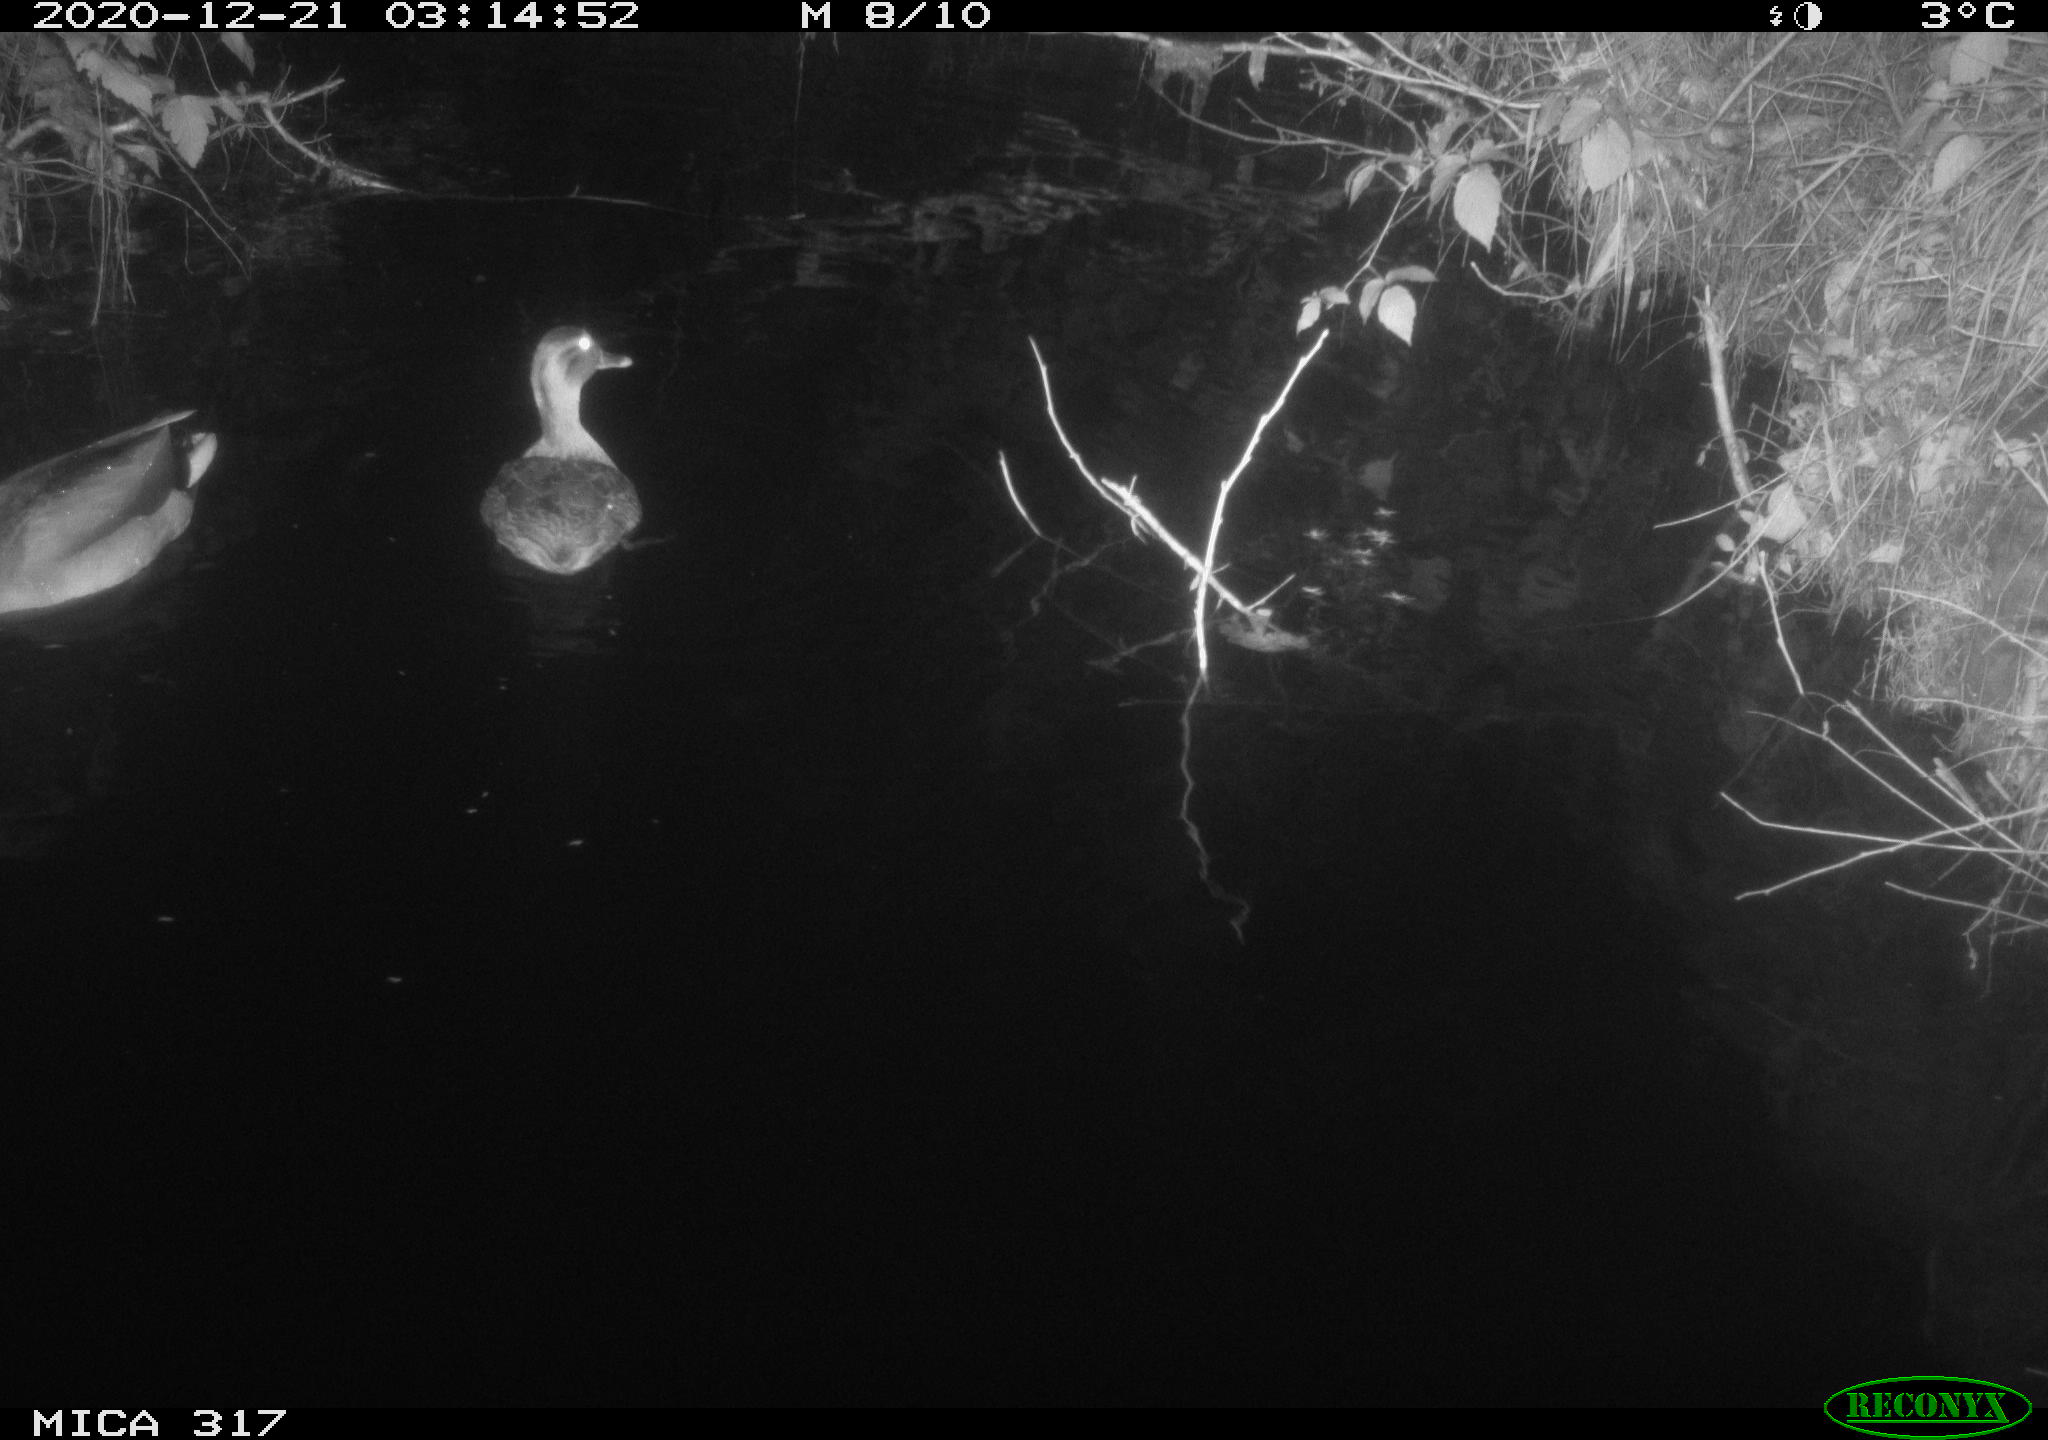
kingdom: Animalia
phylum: Chordata
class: Aves
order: Anseriformes
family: Anatidae
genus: Anas
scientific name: Anas platyrhynchos
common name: Mallard
